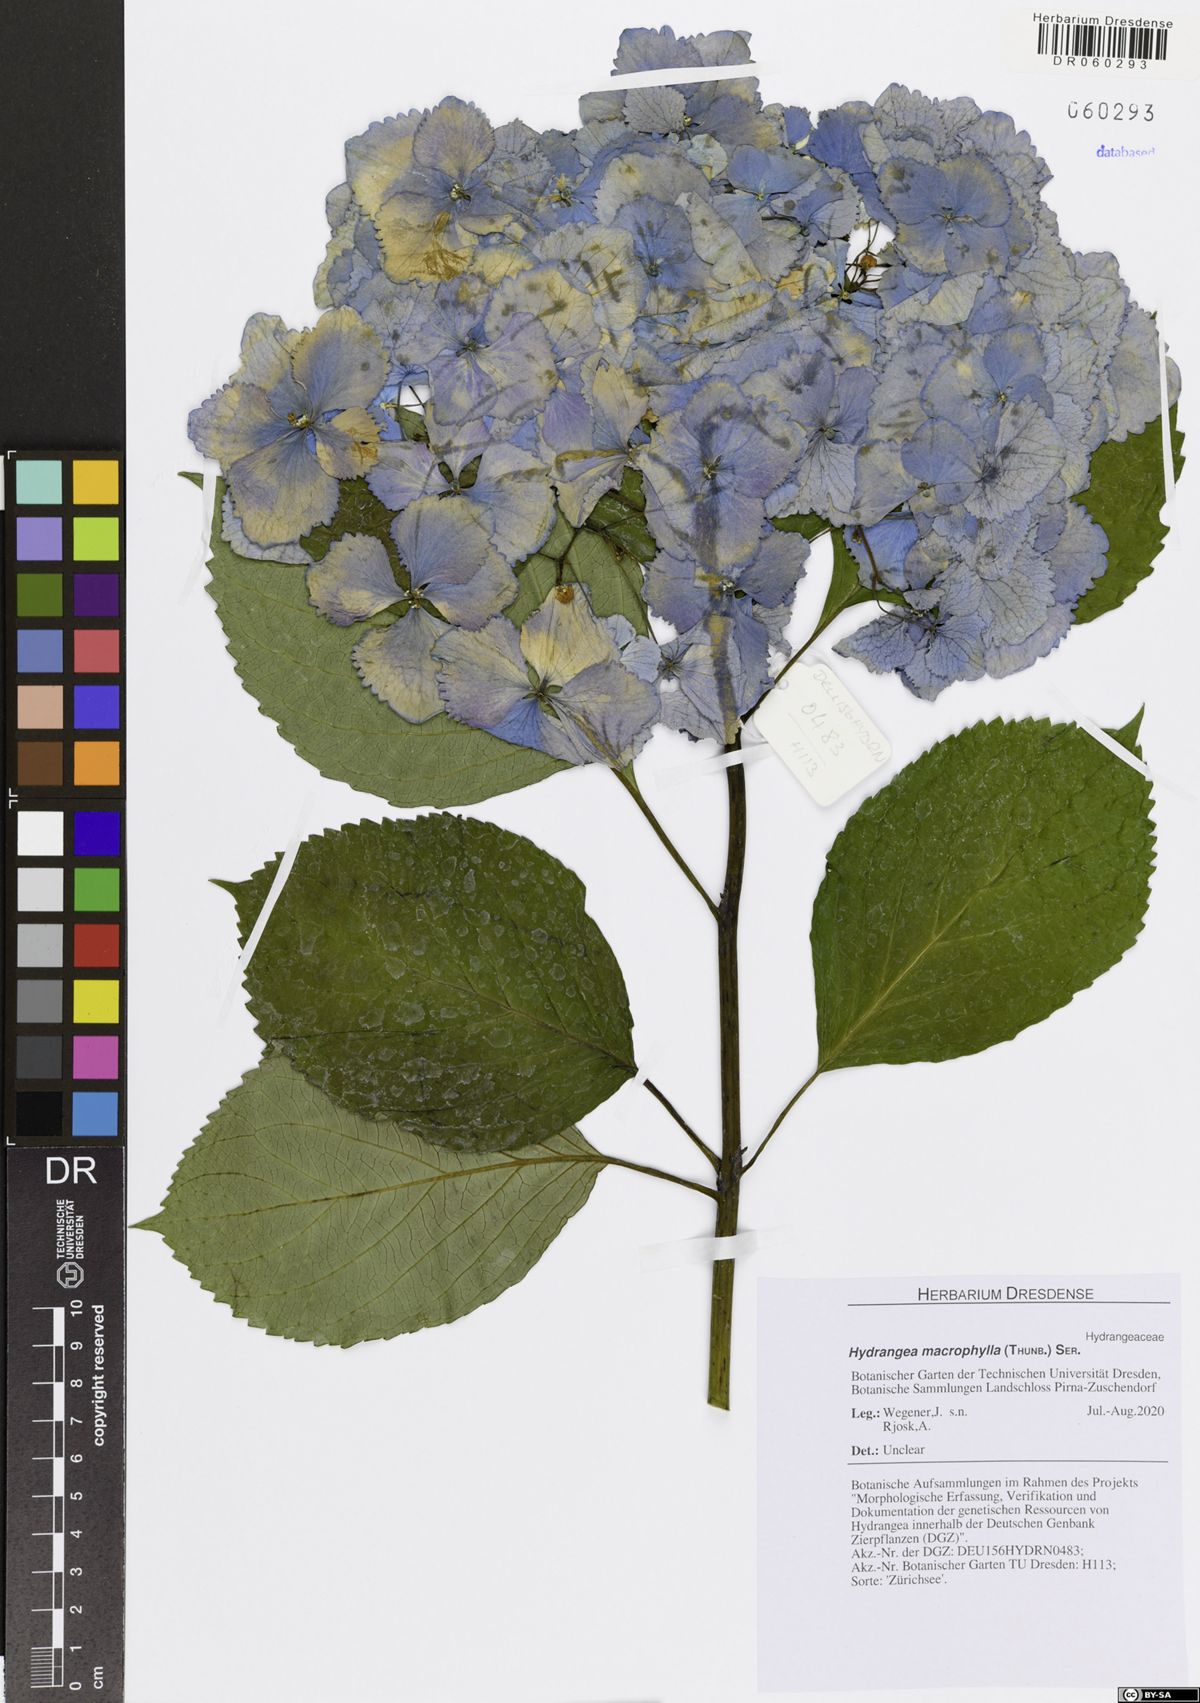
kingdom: Plantae
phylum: Tracheophyta
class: Magnoliopsida
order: Cornales
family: Hydrangeaceae
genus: Hydrangea
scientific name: Hydrangea macrophylla
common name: Hydrangea
